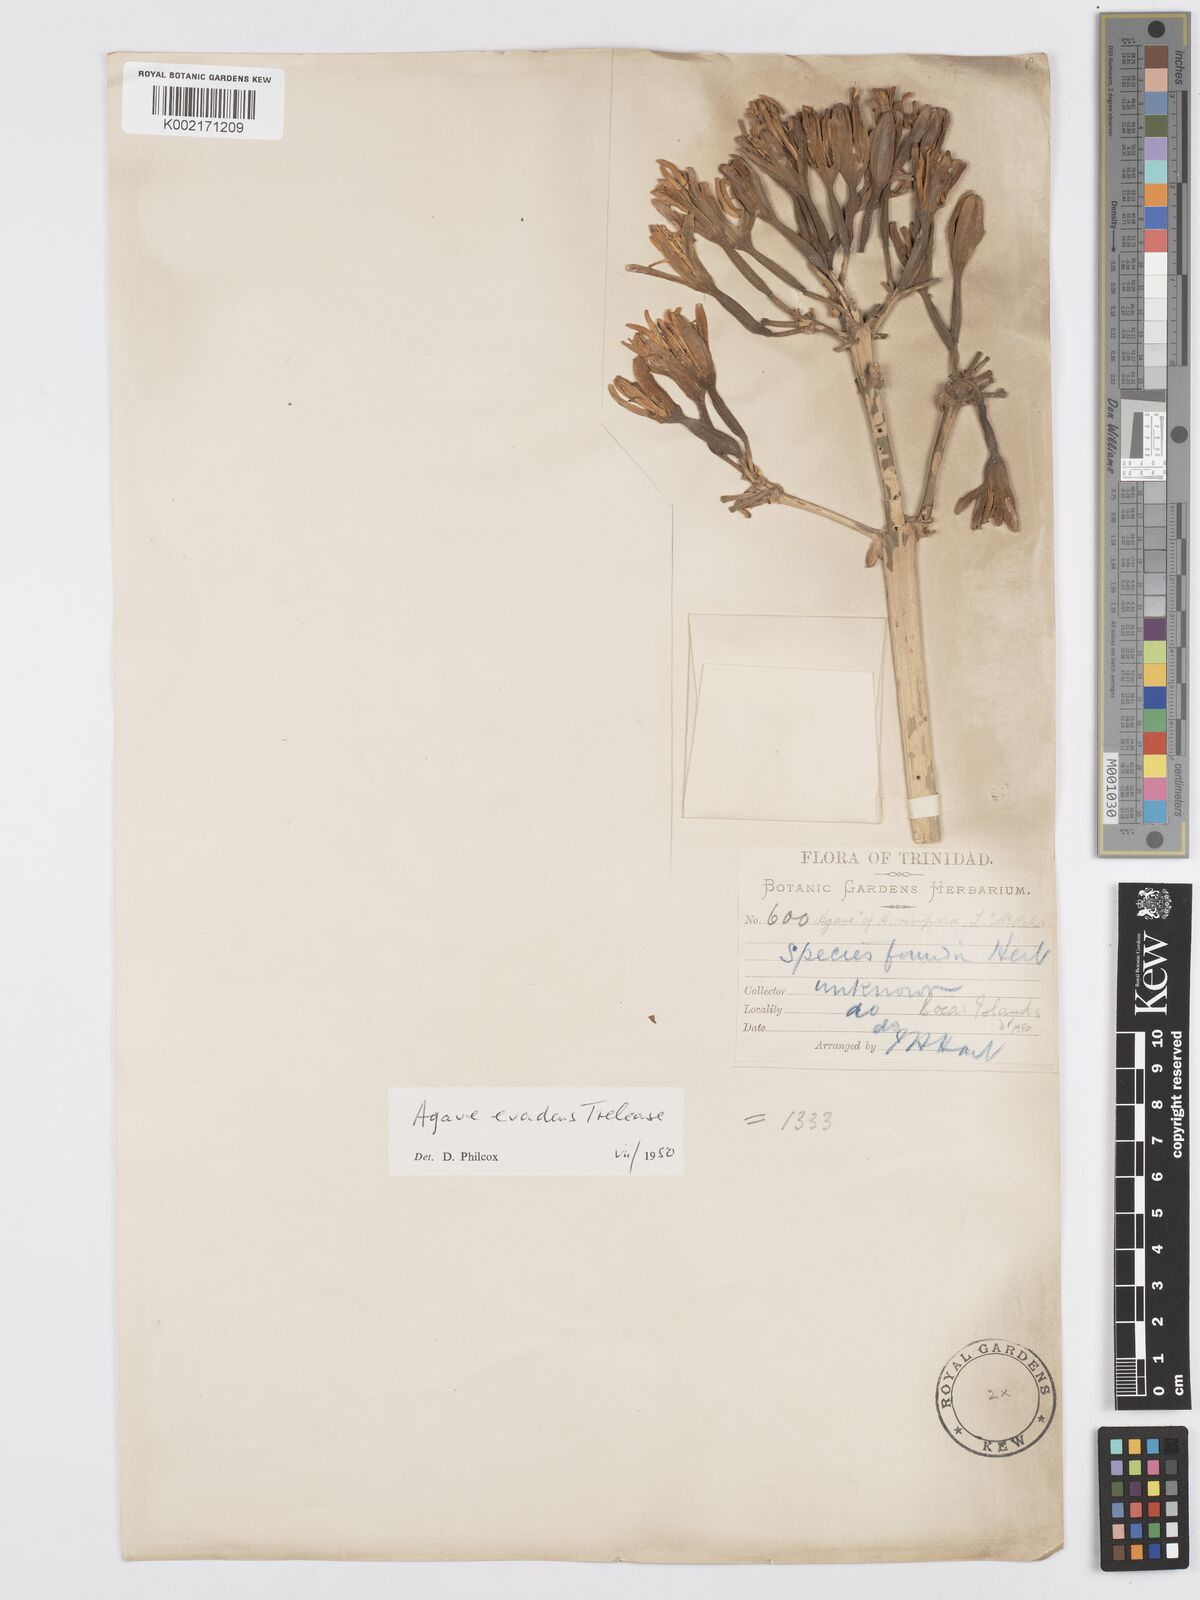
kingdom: Plantae
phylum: Tracheophyta
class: Liliopsida
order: Asparagales
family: Asparagaceae
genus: Agave
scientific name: Agave evadens
